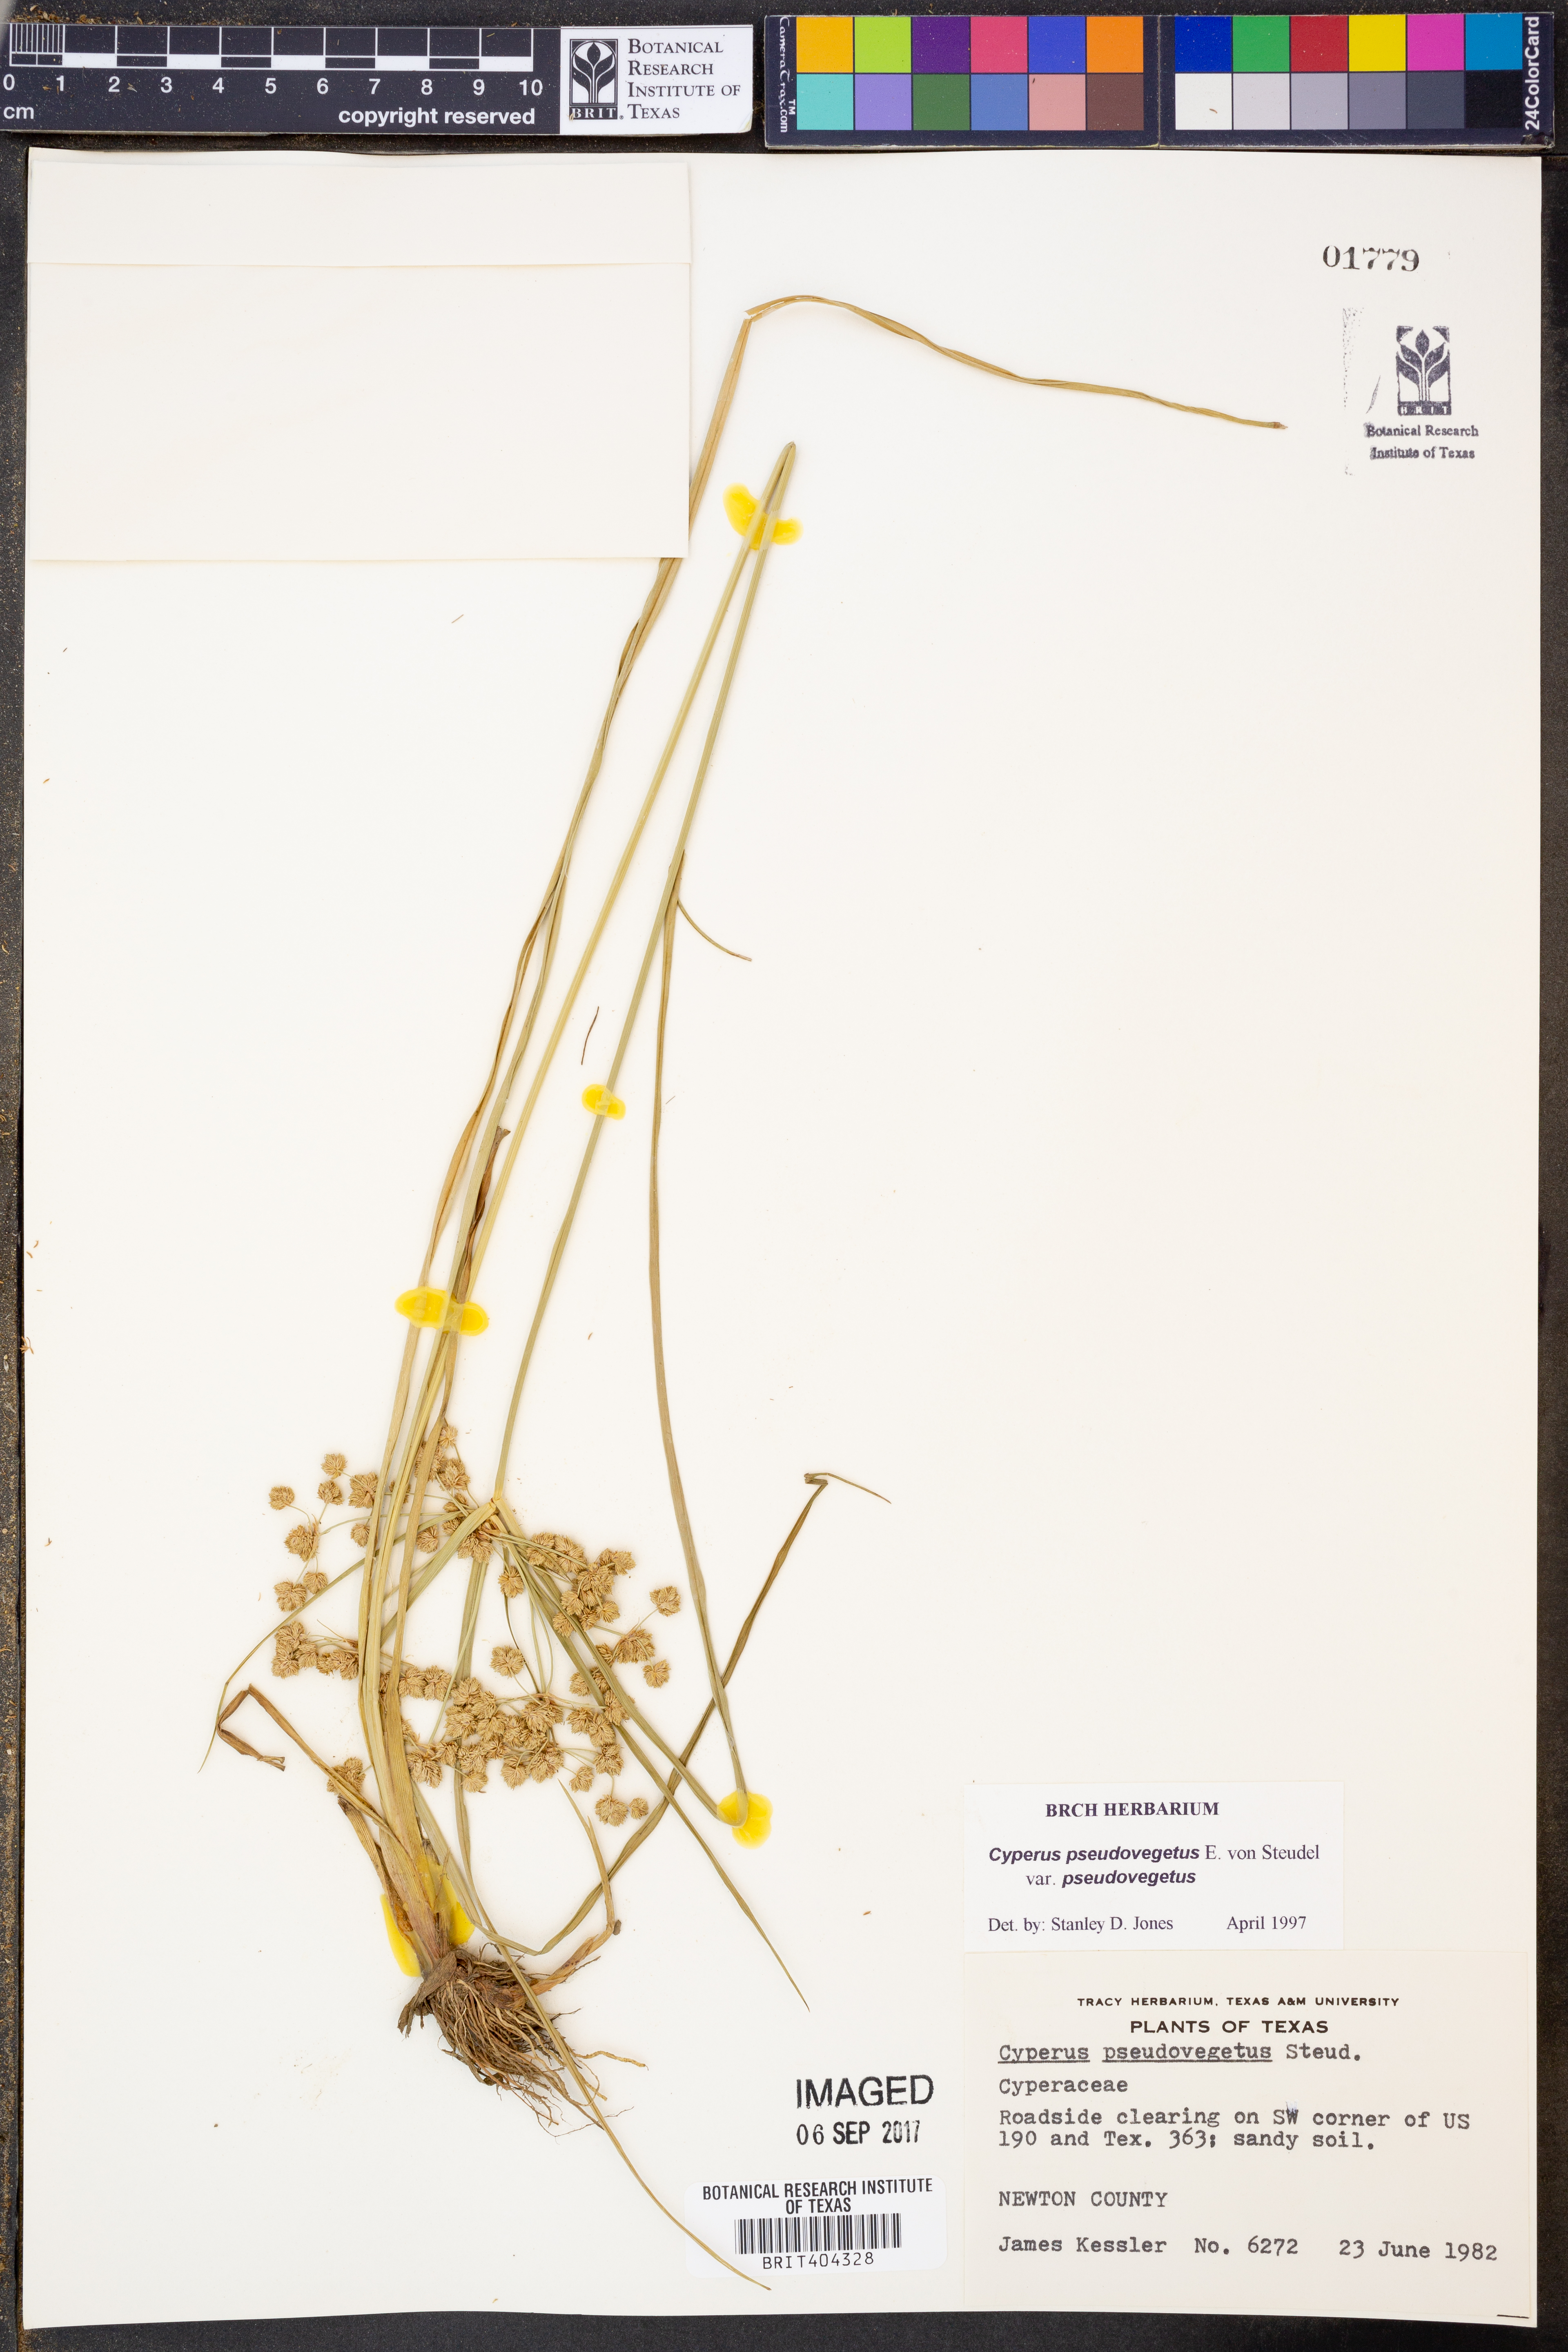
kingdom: Plantae
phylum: Tracheophyta
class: Liliopsida
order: Poales
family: Cyperaceae
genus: Cyperus
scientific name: Cyperus pseudovegetus
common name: Marsh flat sedge
